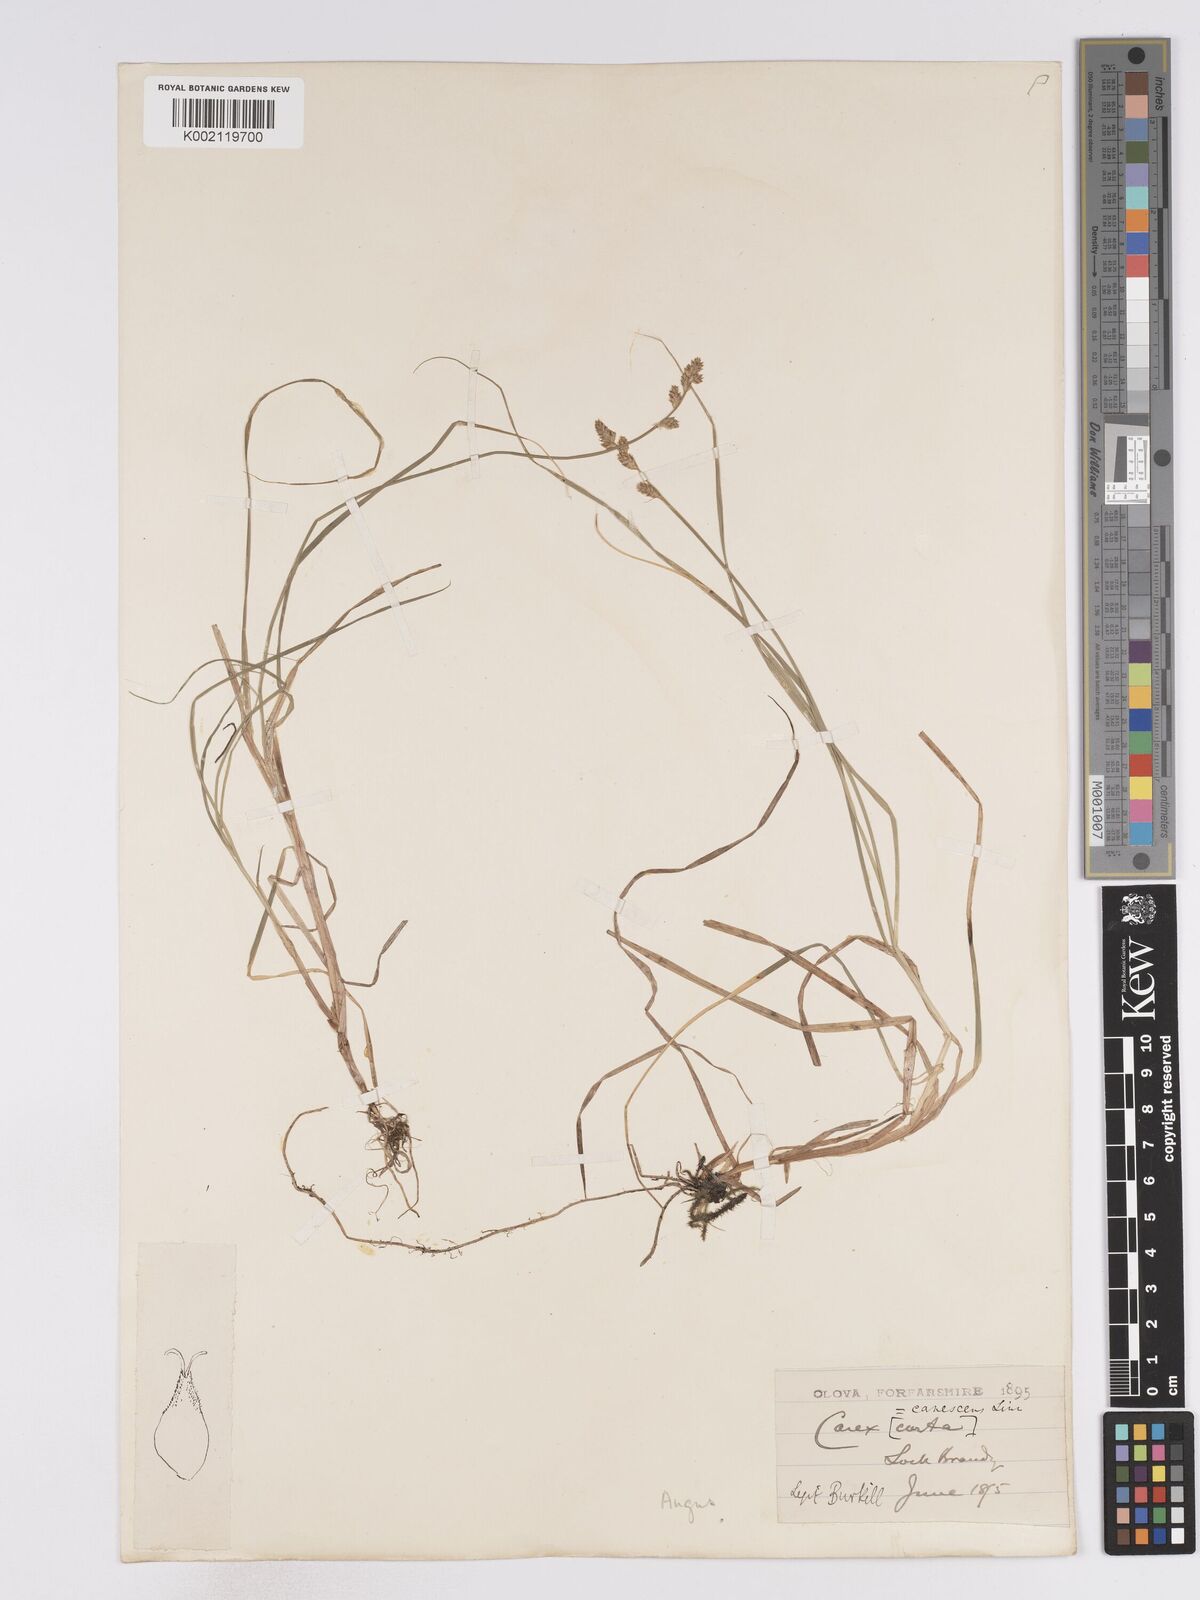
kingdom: Plantae
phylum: Tracheophyta
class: Liliopsida
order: Poales
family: Cyperaceae
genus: Carex
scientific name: Carex curta
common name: White sedge
